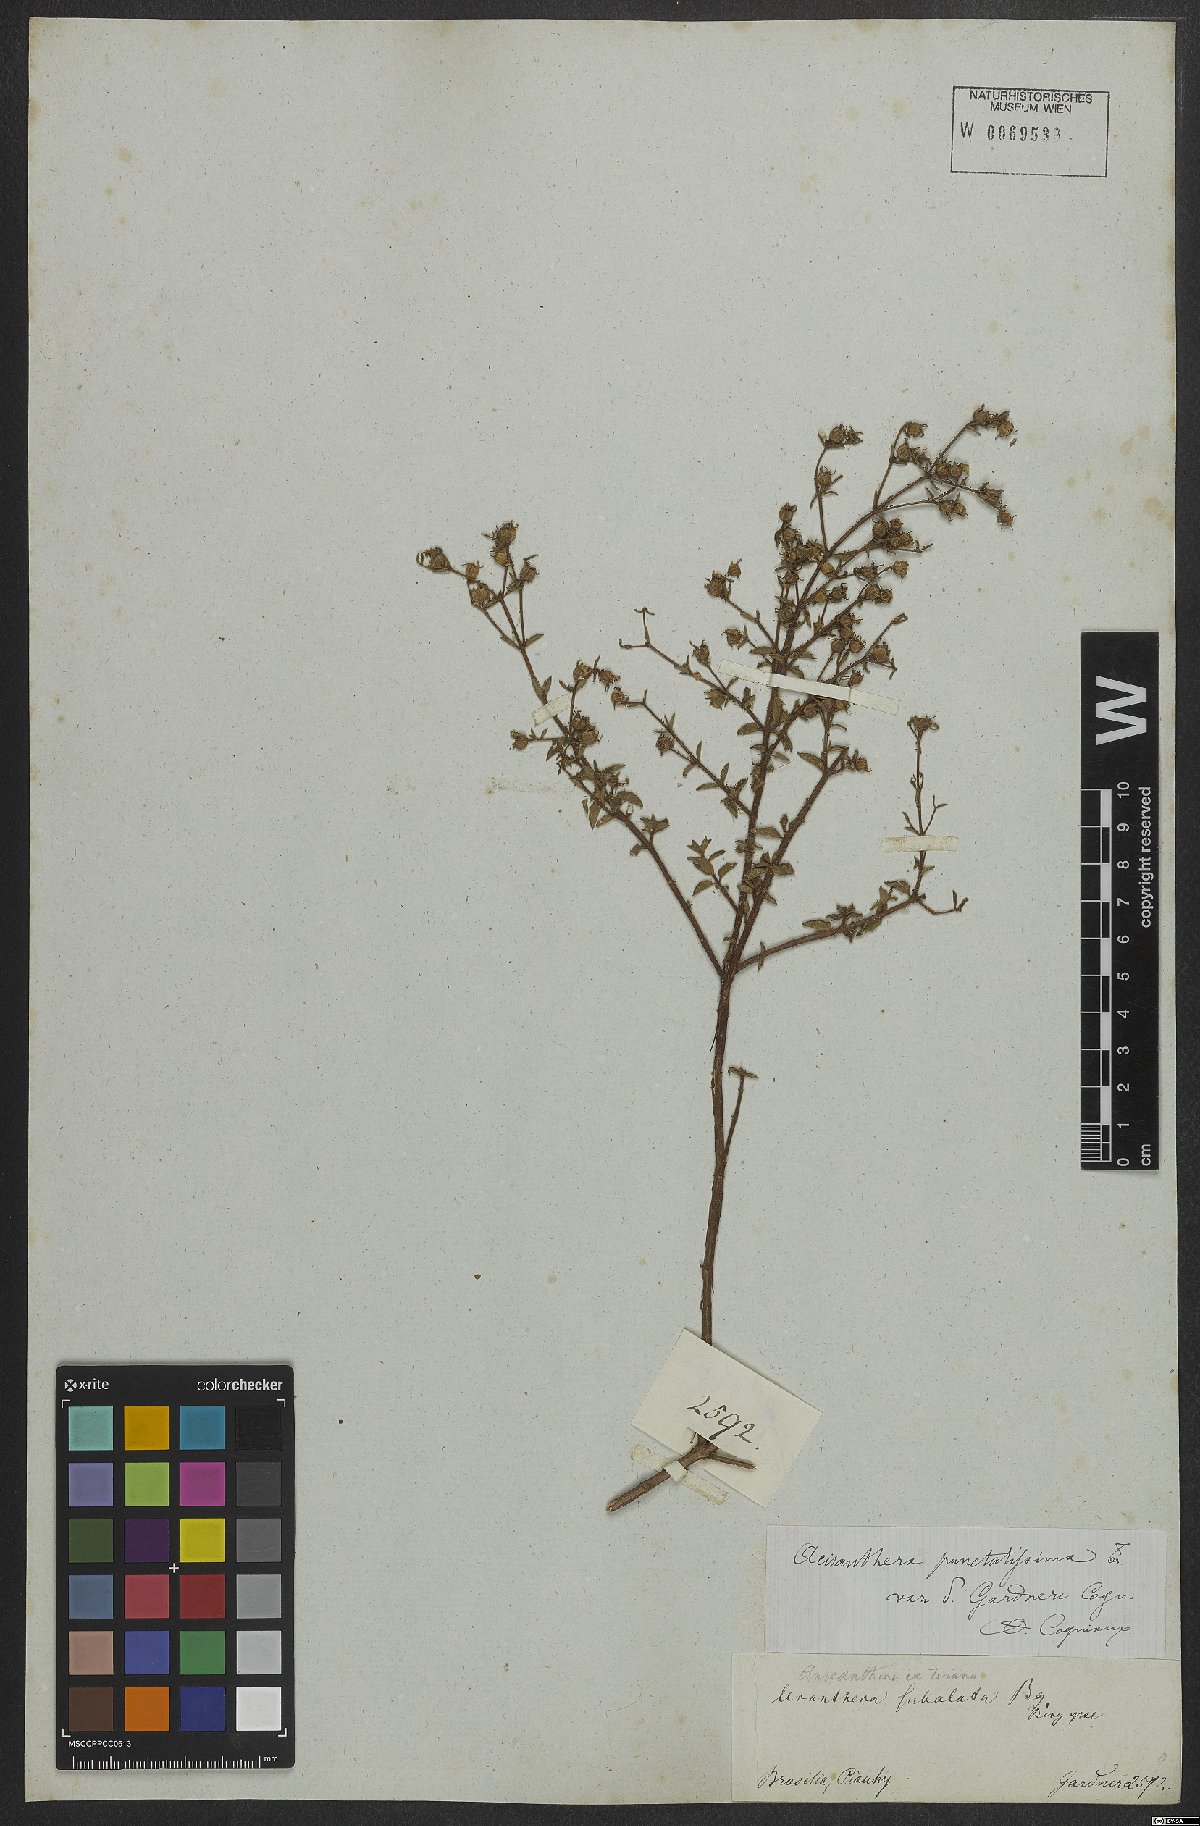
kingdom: Plantae
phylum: Tracheophyta
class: Magnoliopsida
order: Myrtales
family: Melastomataceae
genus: Acisanthera
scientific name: Acisanthera quadrata
